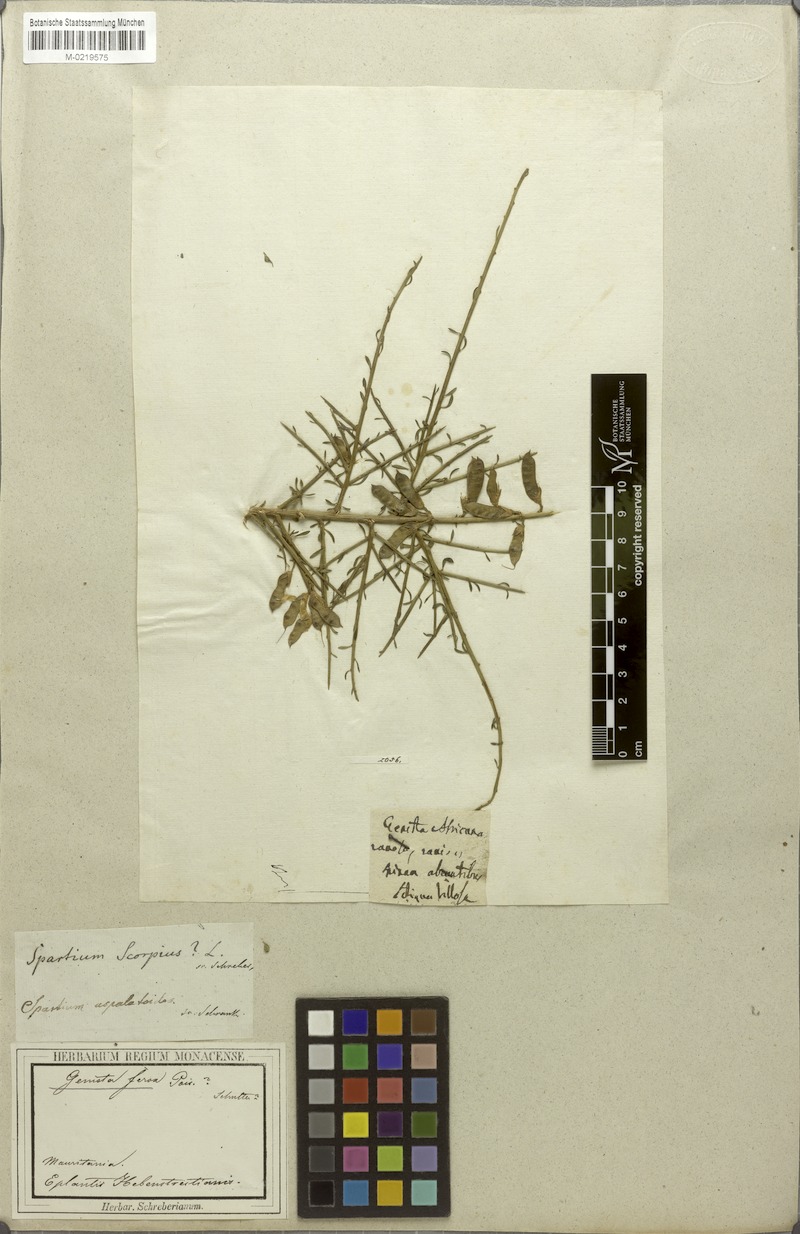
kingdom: Plantae
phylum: Tracheophyta
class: Magnoliopsida
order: Fabales
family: Fabaceae
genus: Genista
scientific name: Genista ferox
